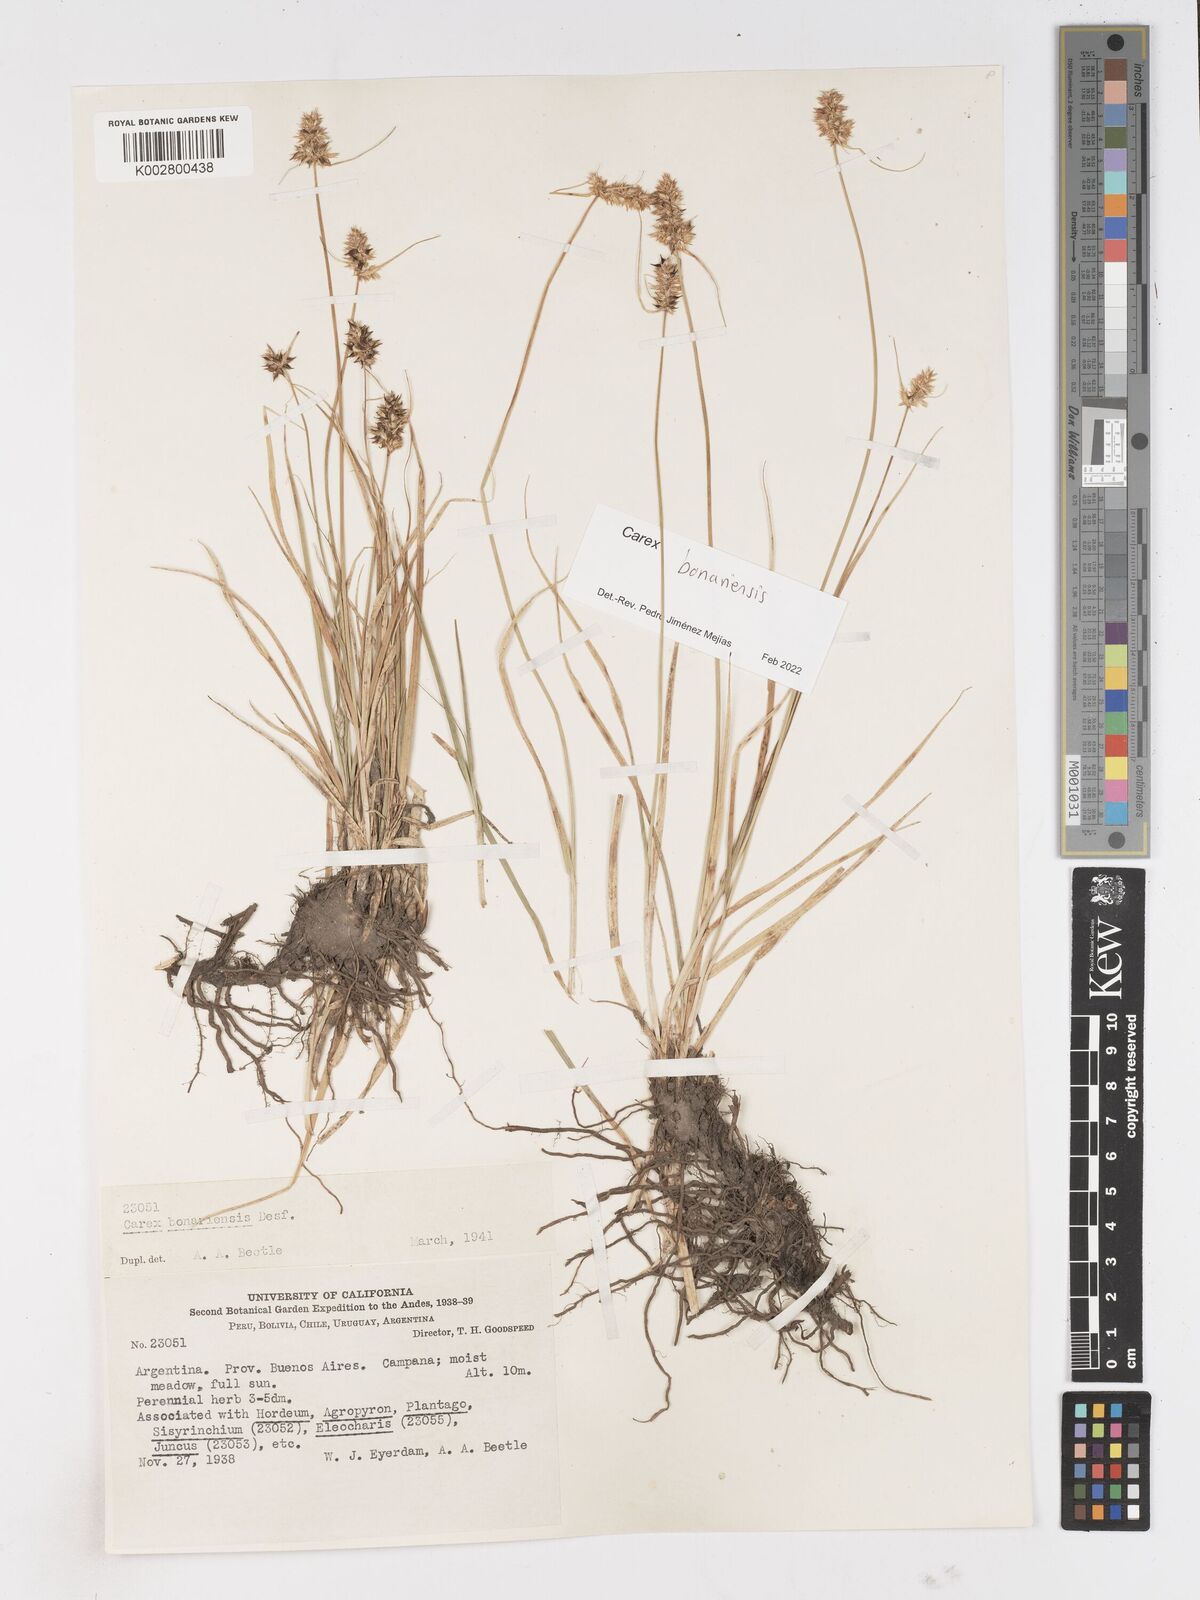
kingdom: Plantae
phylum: Tracheophyta
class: Liliopsida
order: Poales
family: Cyperaceae
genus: Carex
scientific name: Carex bonariensis
